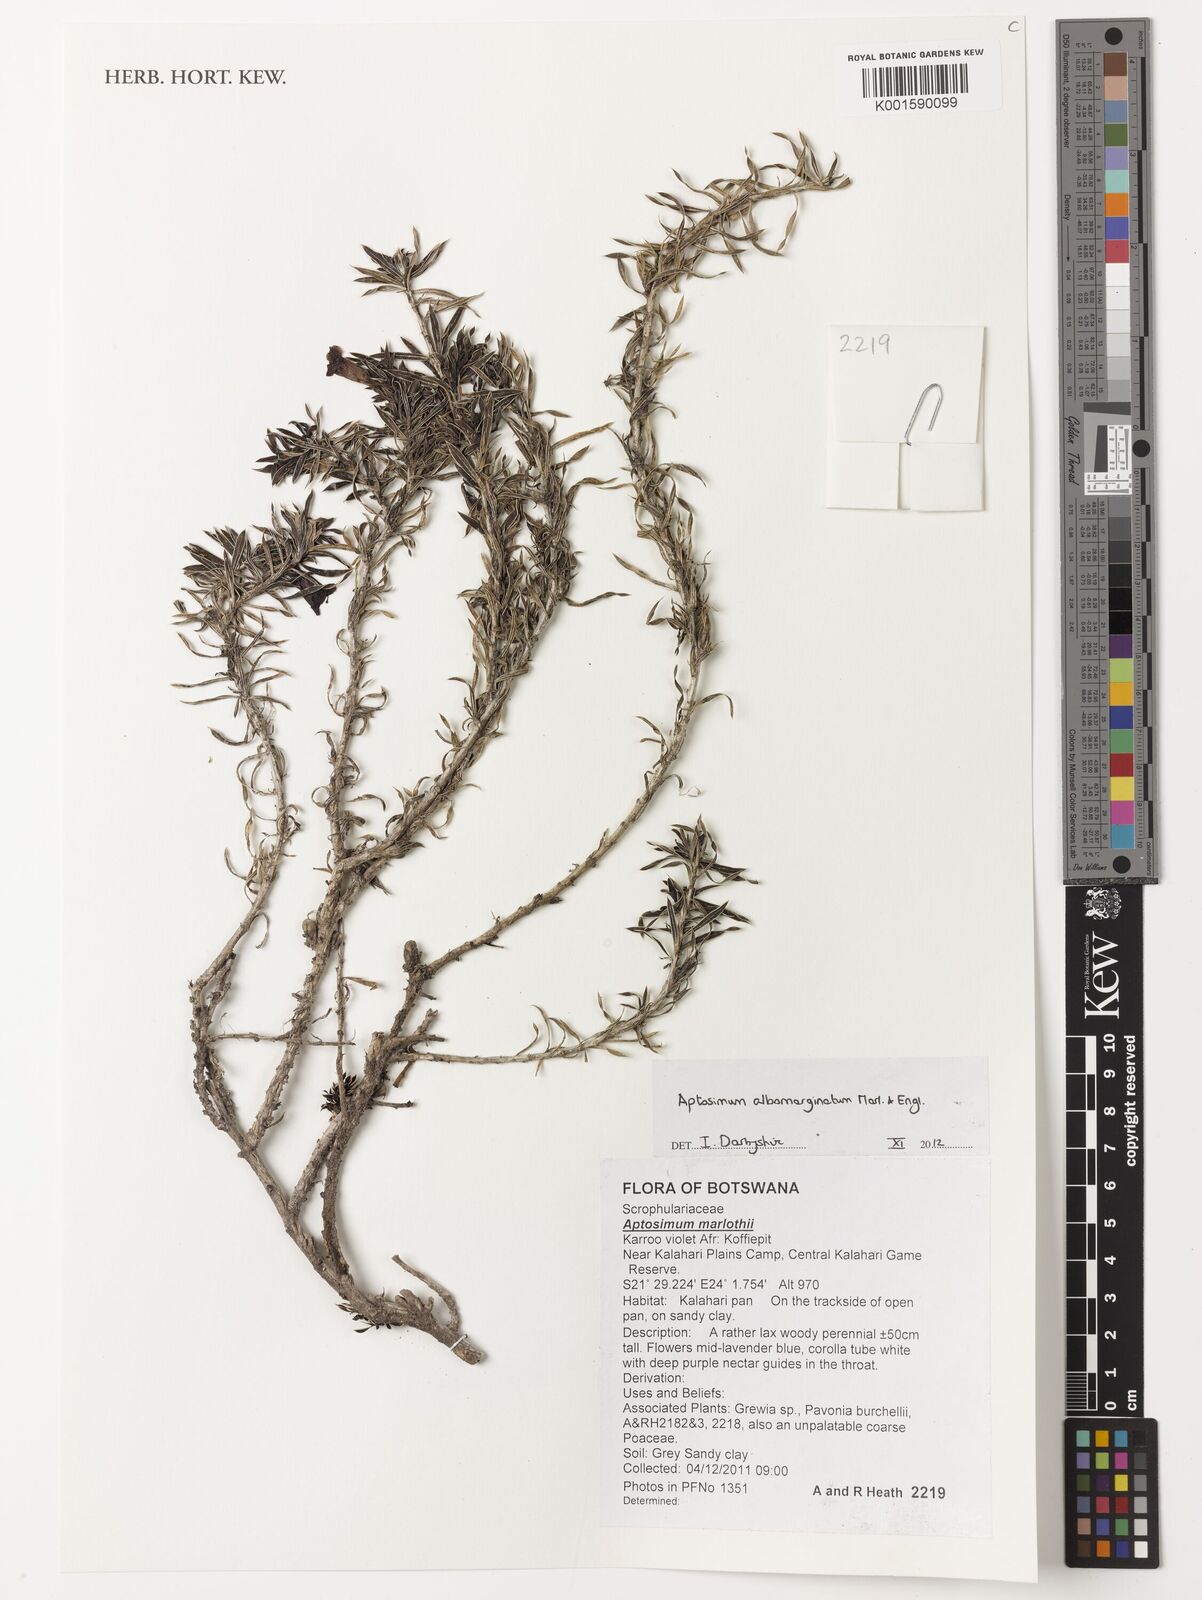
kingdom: Plantae
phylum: Tracheophyta
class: Magnoliopsida
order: Lamiales
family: Scrophulariaceae
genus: Aptosimum
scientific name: Aptosimum albomarginatum
